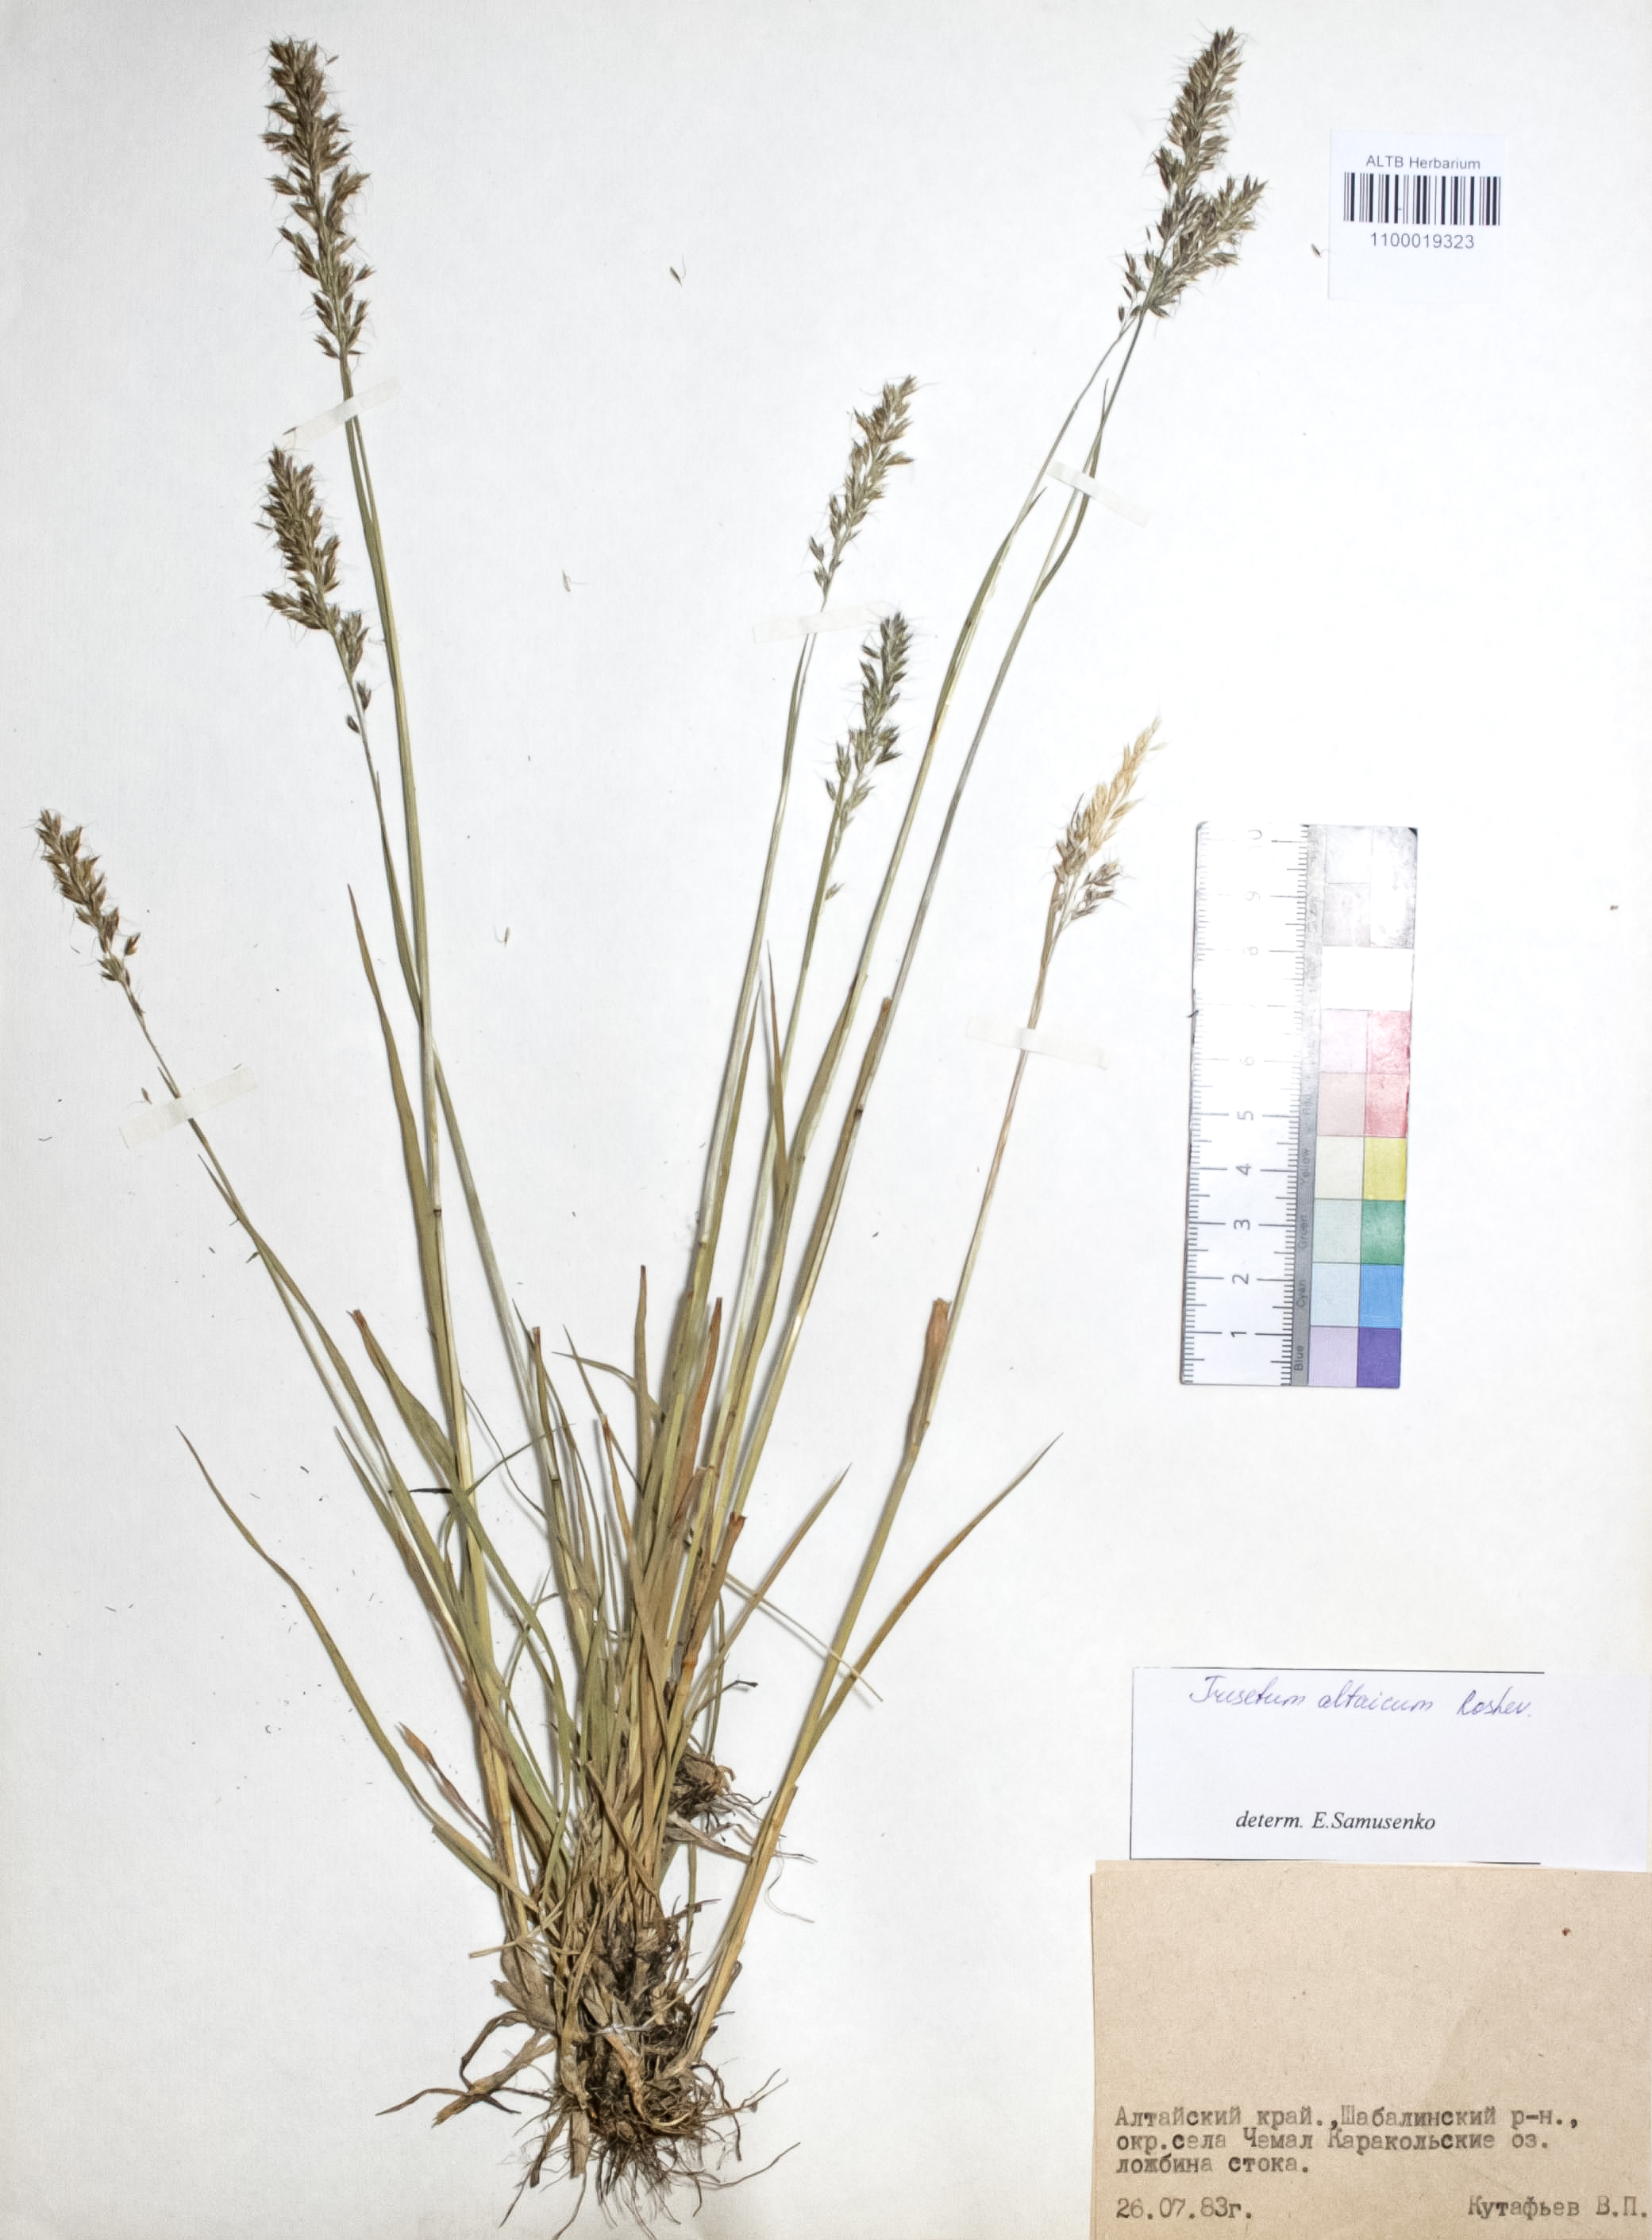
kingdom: Plantae
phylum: Tracheophyta
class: Liliopsida
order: Poales
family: Poaceae
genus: Trisetum
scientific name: Trisetum altaicum
